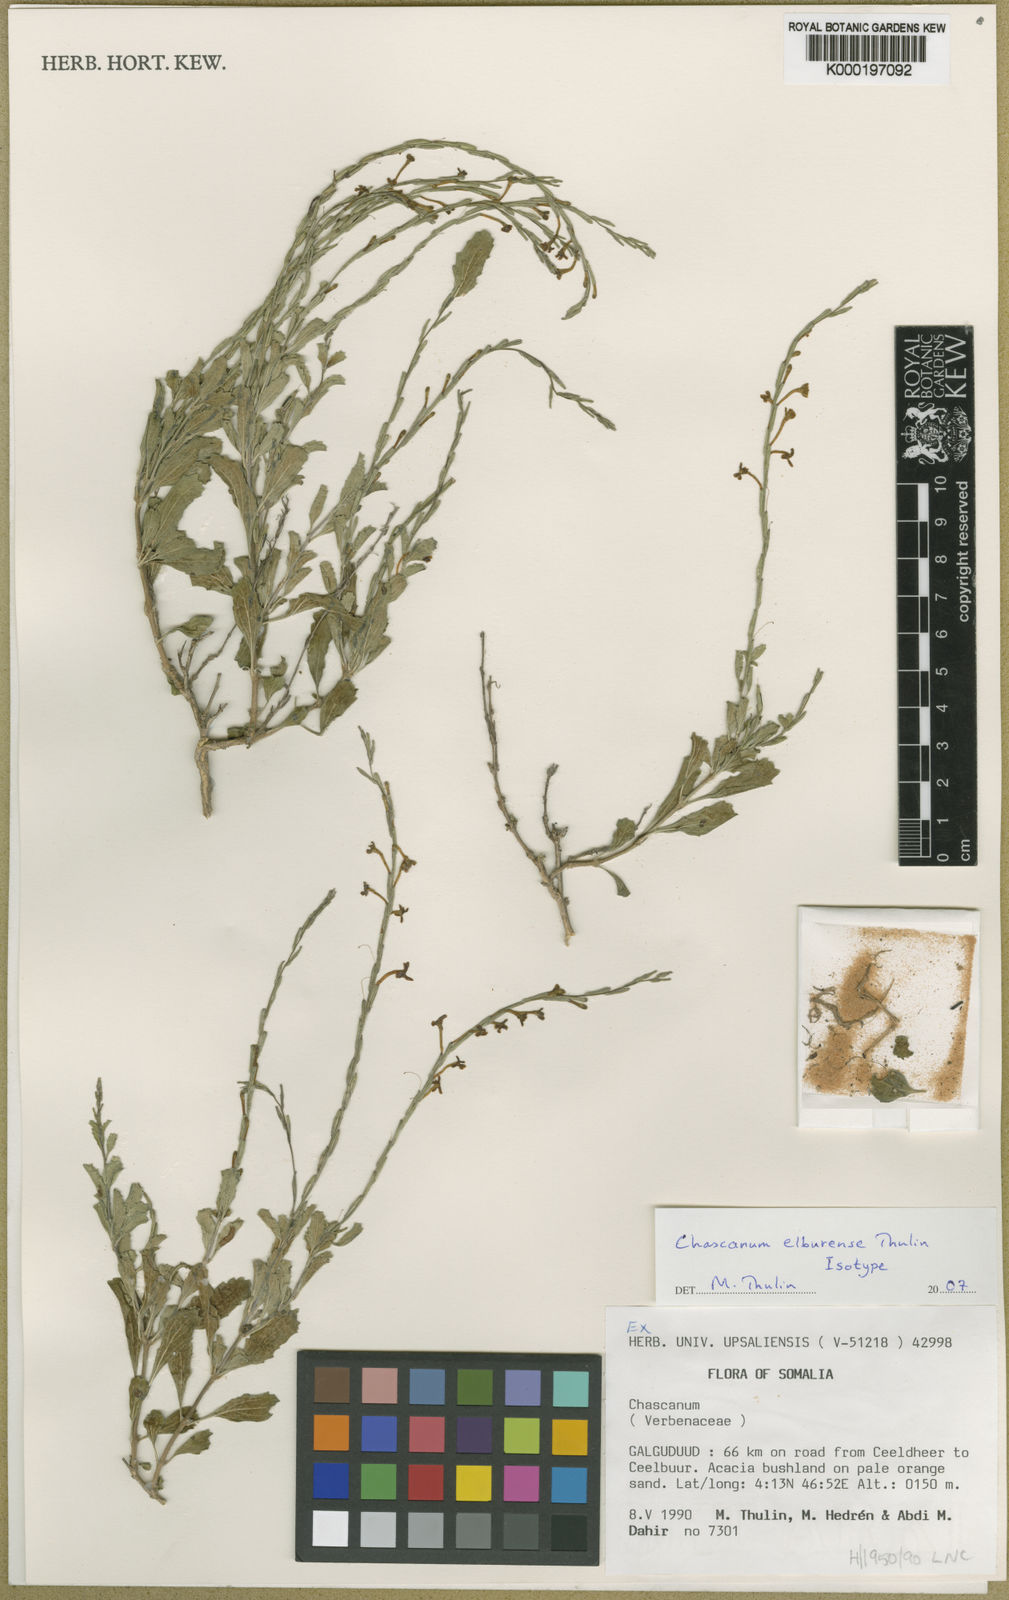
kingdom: Plantae
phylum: Tracheophyta
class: Magnoliopsida
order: Lamiales
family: Verbenaceae
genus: Chascanum
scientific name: Chascanum elburense
